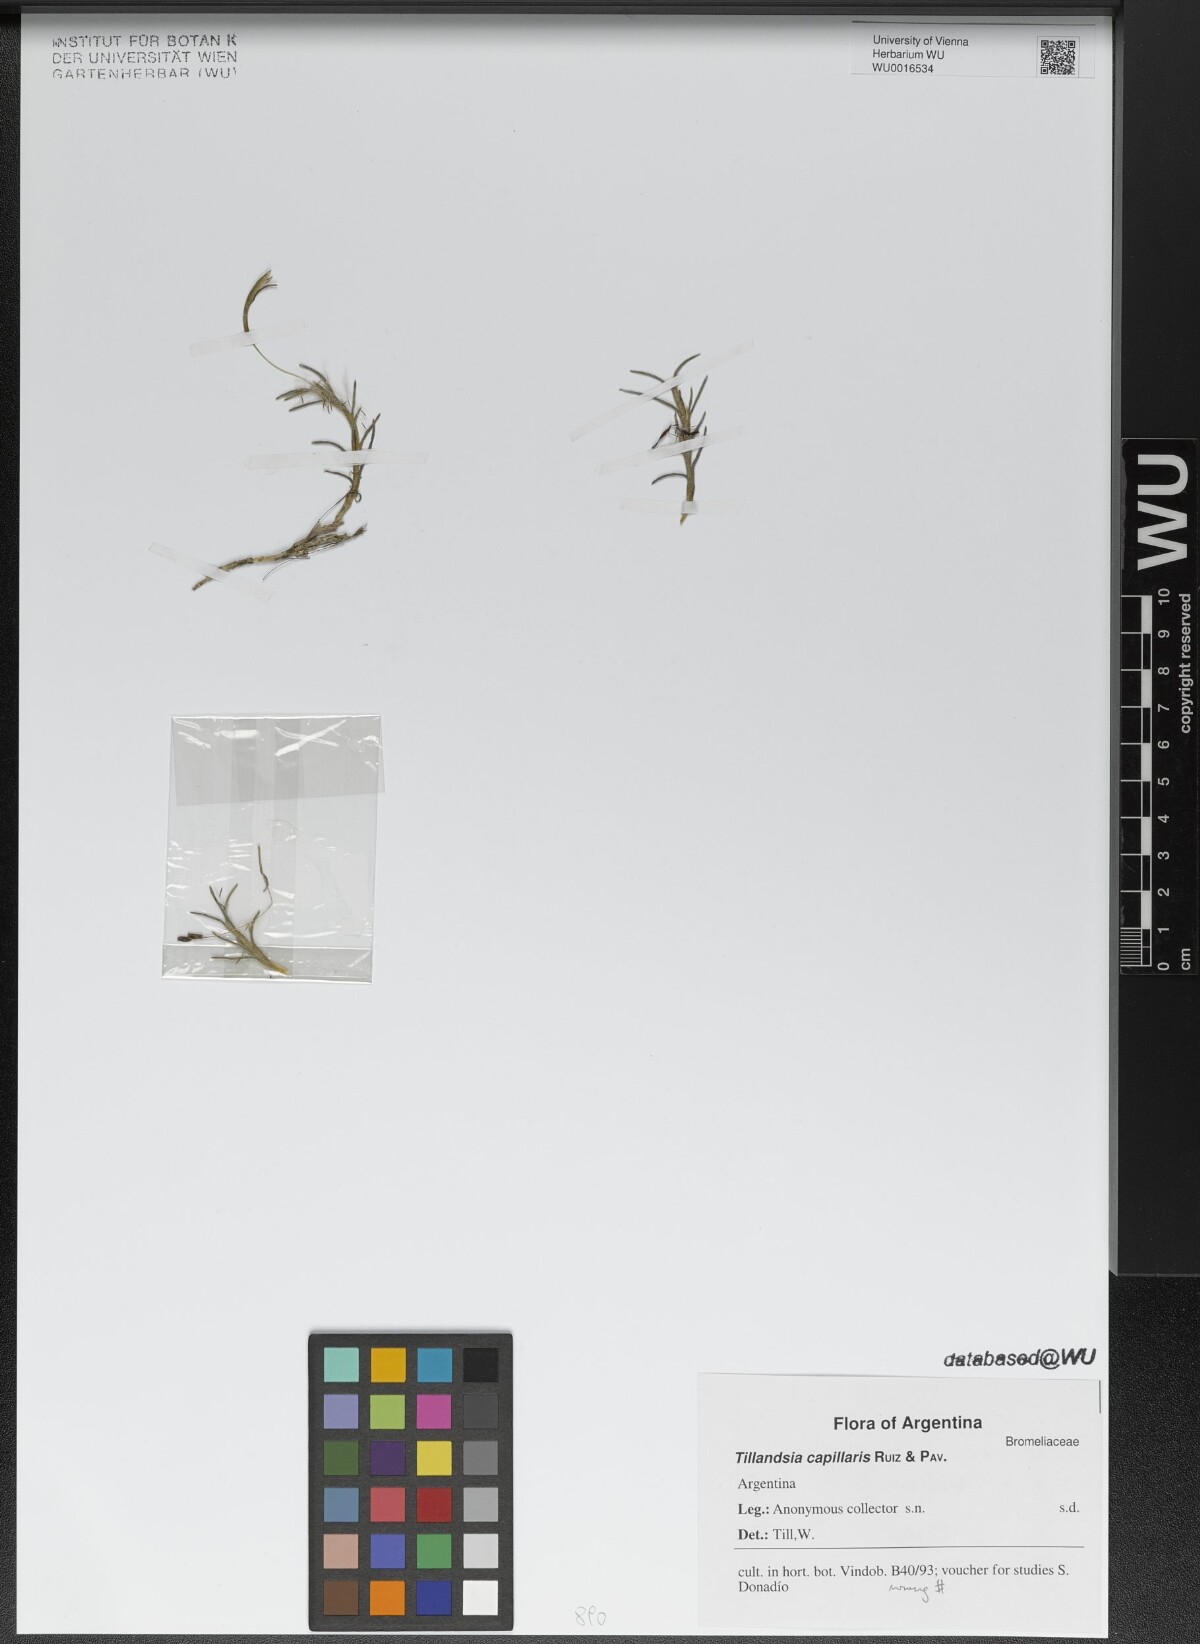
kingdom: Plantae
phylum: Tracheophyta
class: Liliopsida
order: Poales
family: Bromeliaceae
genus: Tillandsia
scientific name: Tillandsia capillaris
